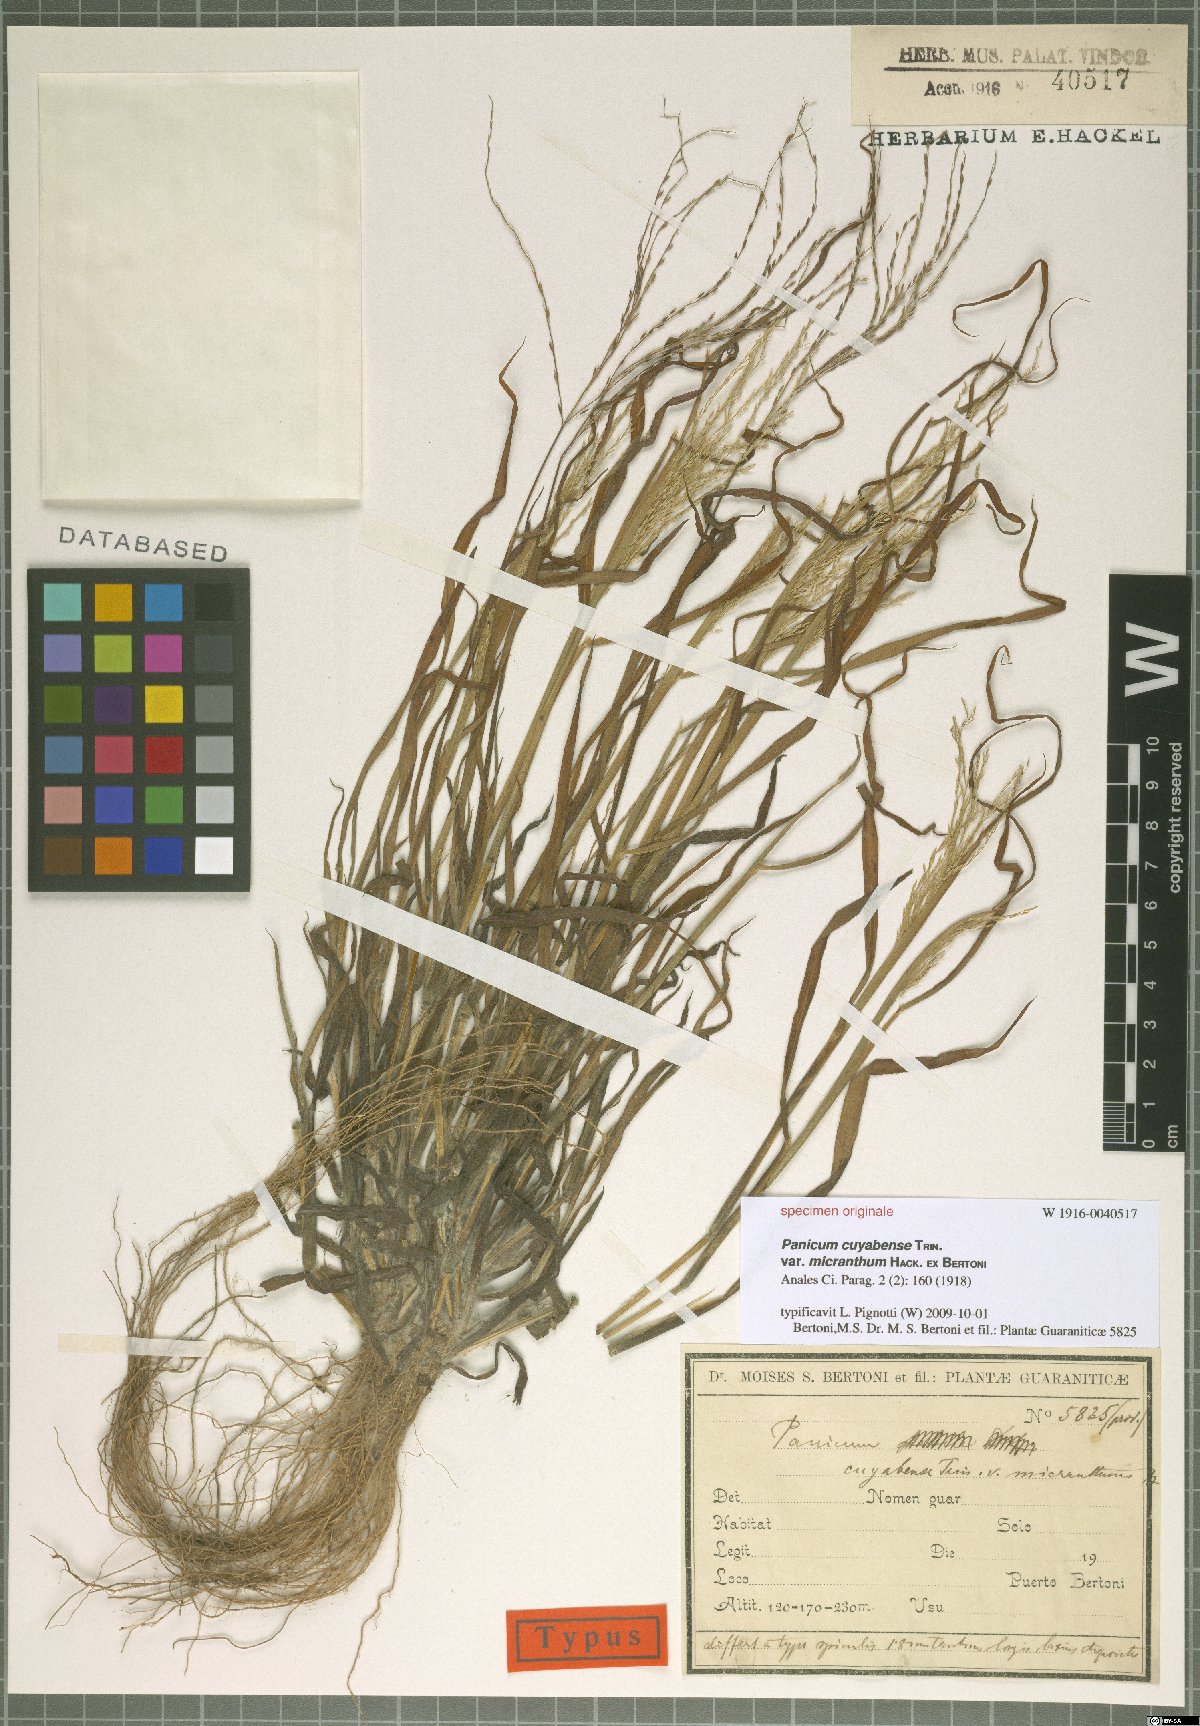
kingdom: Plantae
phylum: Tracheophyta
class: Liliopsida
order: Poales
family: Poaceae
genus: Digitaria
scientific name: Digitaria cuyabensis
